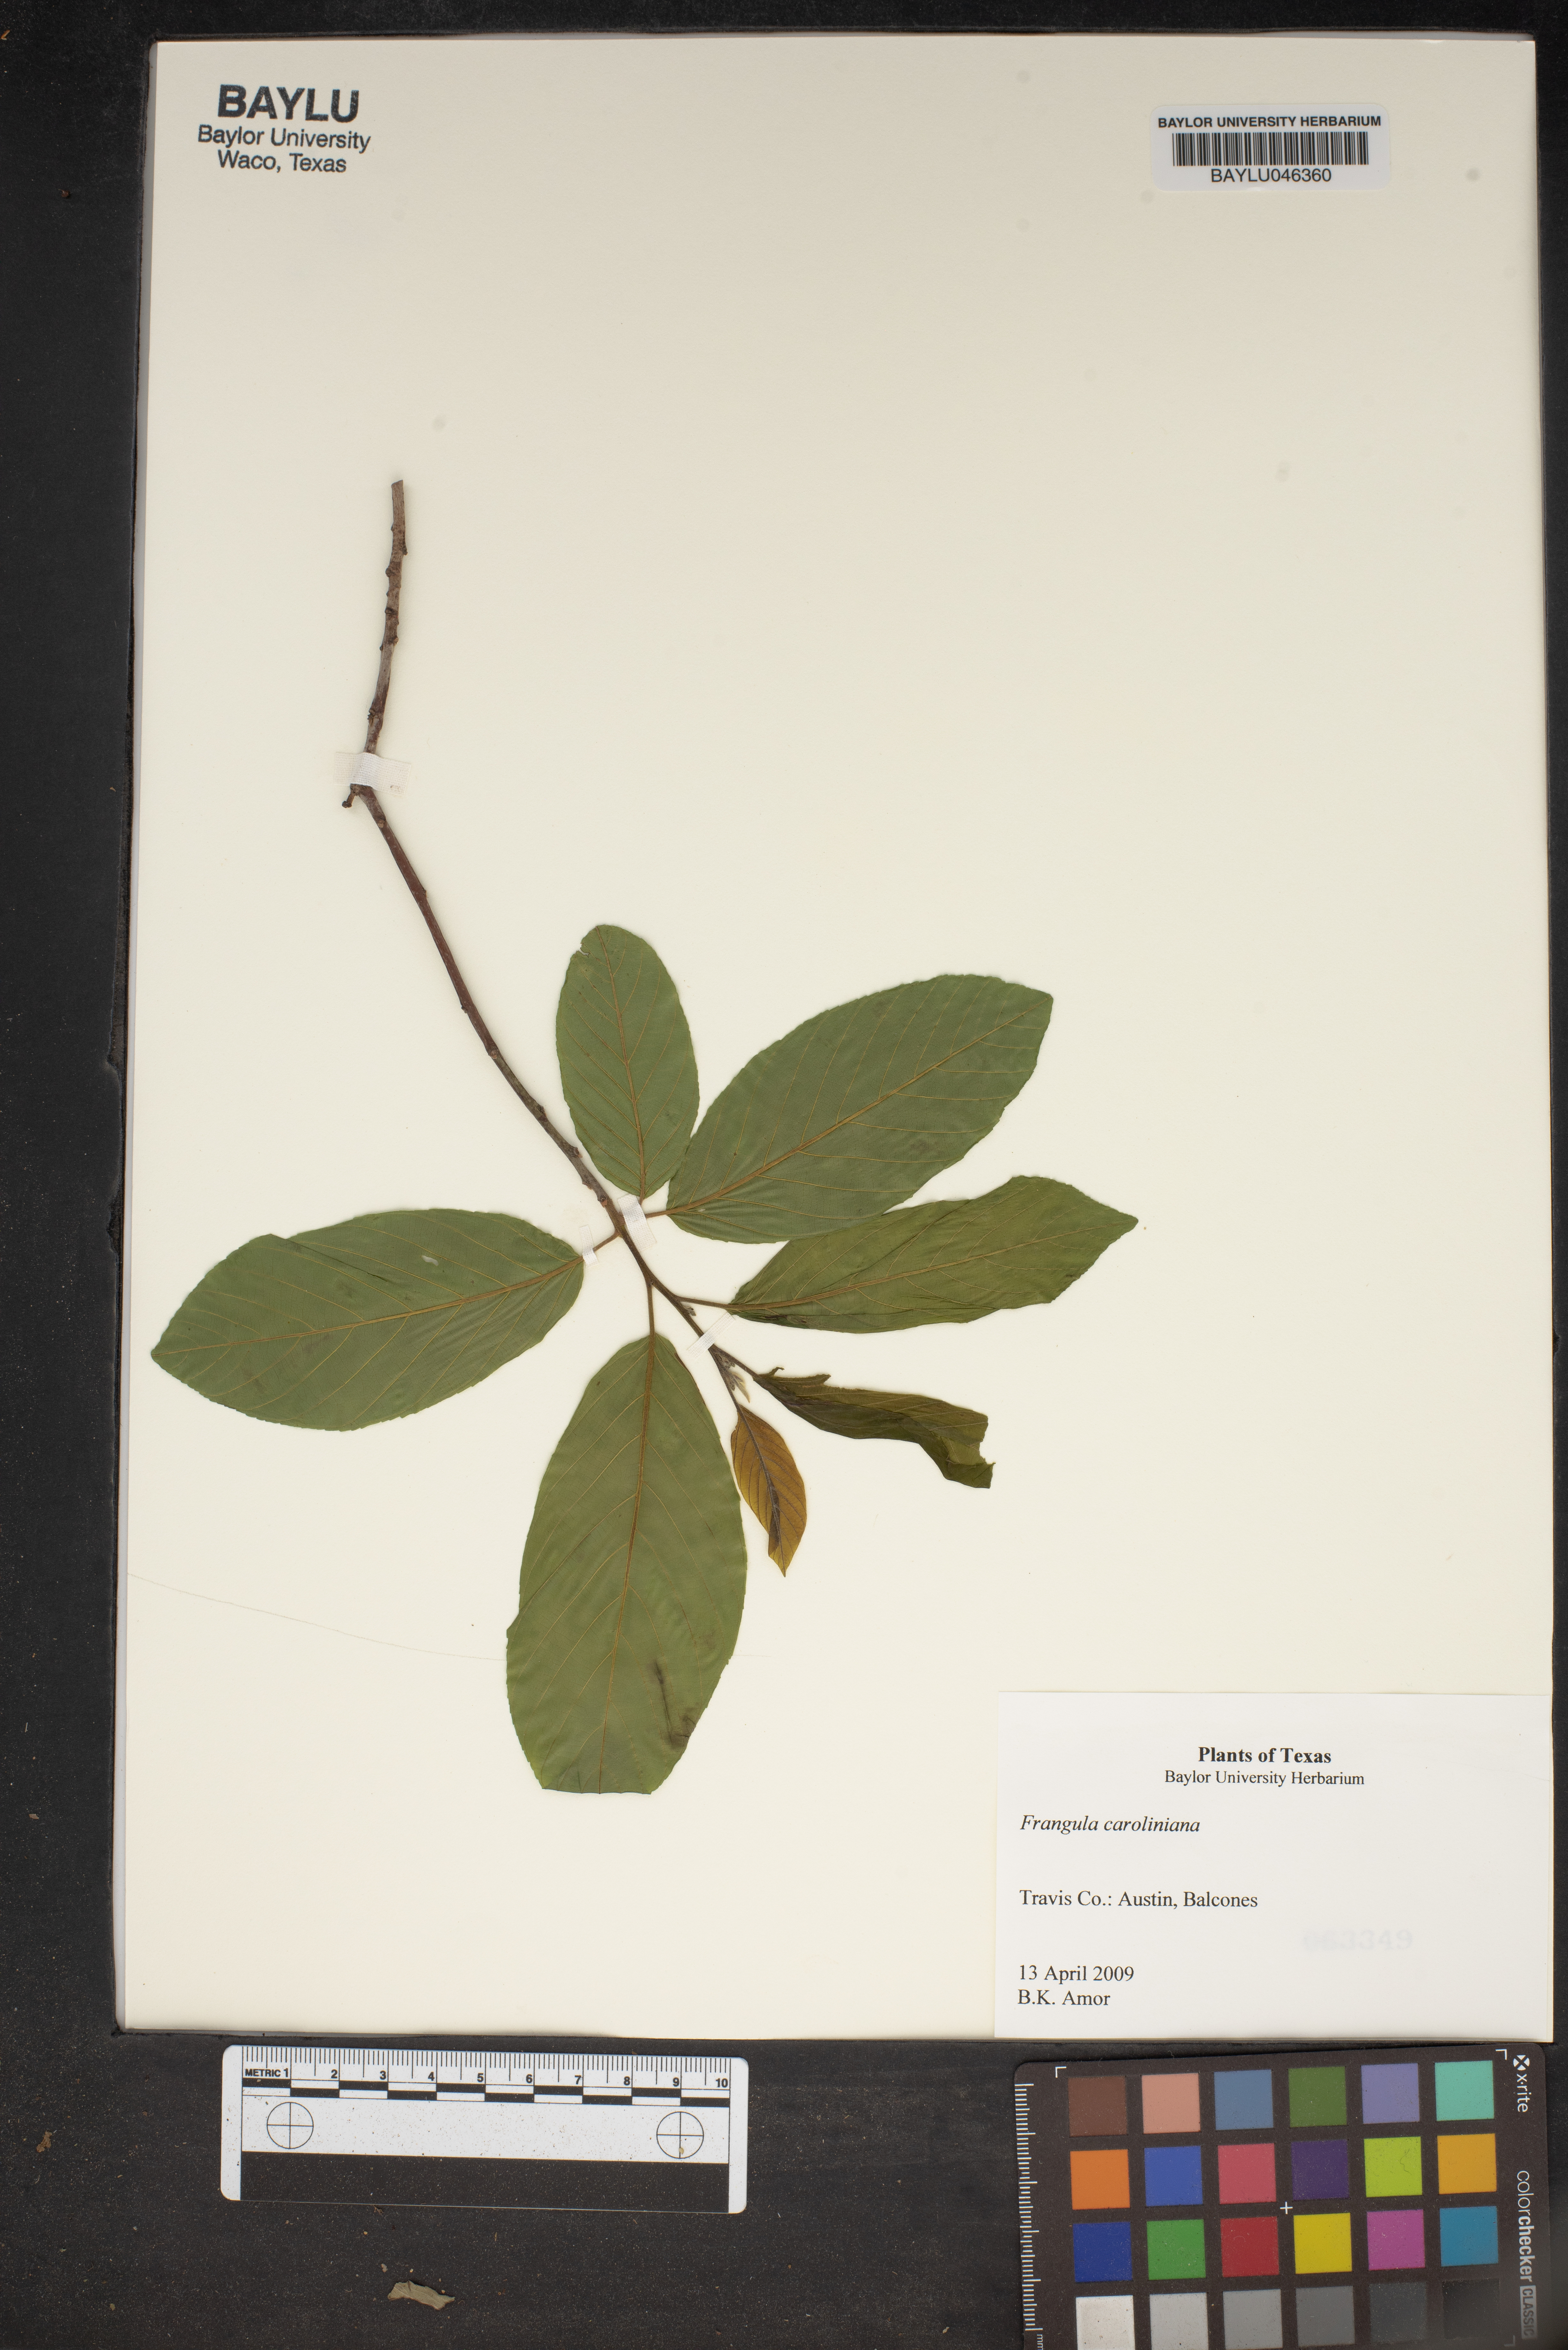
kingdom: Plantae
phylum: Tracheophyta
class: Magnoliopsida
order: Rosales
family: Rhamnaceae
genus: Frangula
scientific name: Frangula caroliniana
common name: Carolina buckthorn
